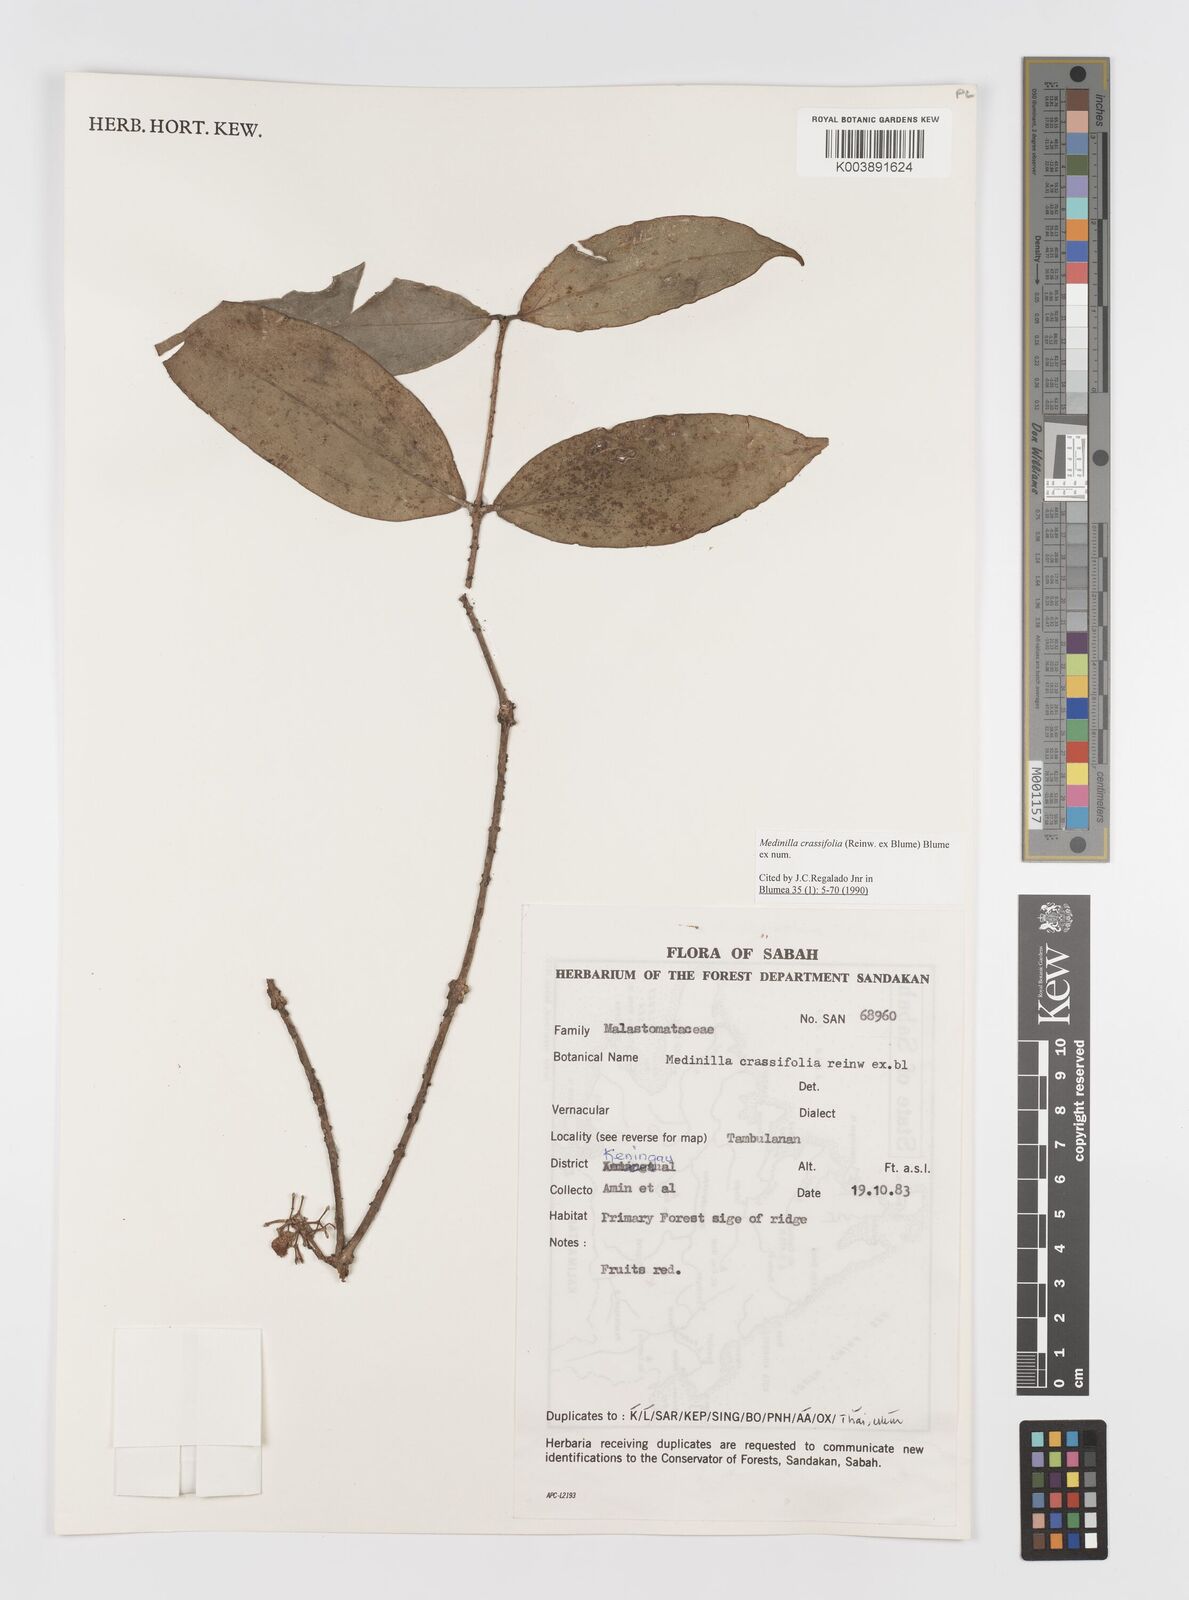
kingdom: Plantae
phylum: Tracheophyta
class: Magnoliopsida
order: Myrtales
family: Melastomataceae
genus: Medinilla
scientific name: Medinilla crassifolia
